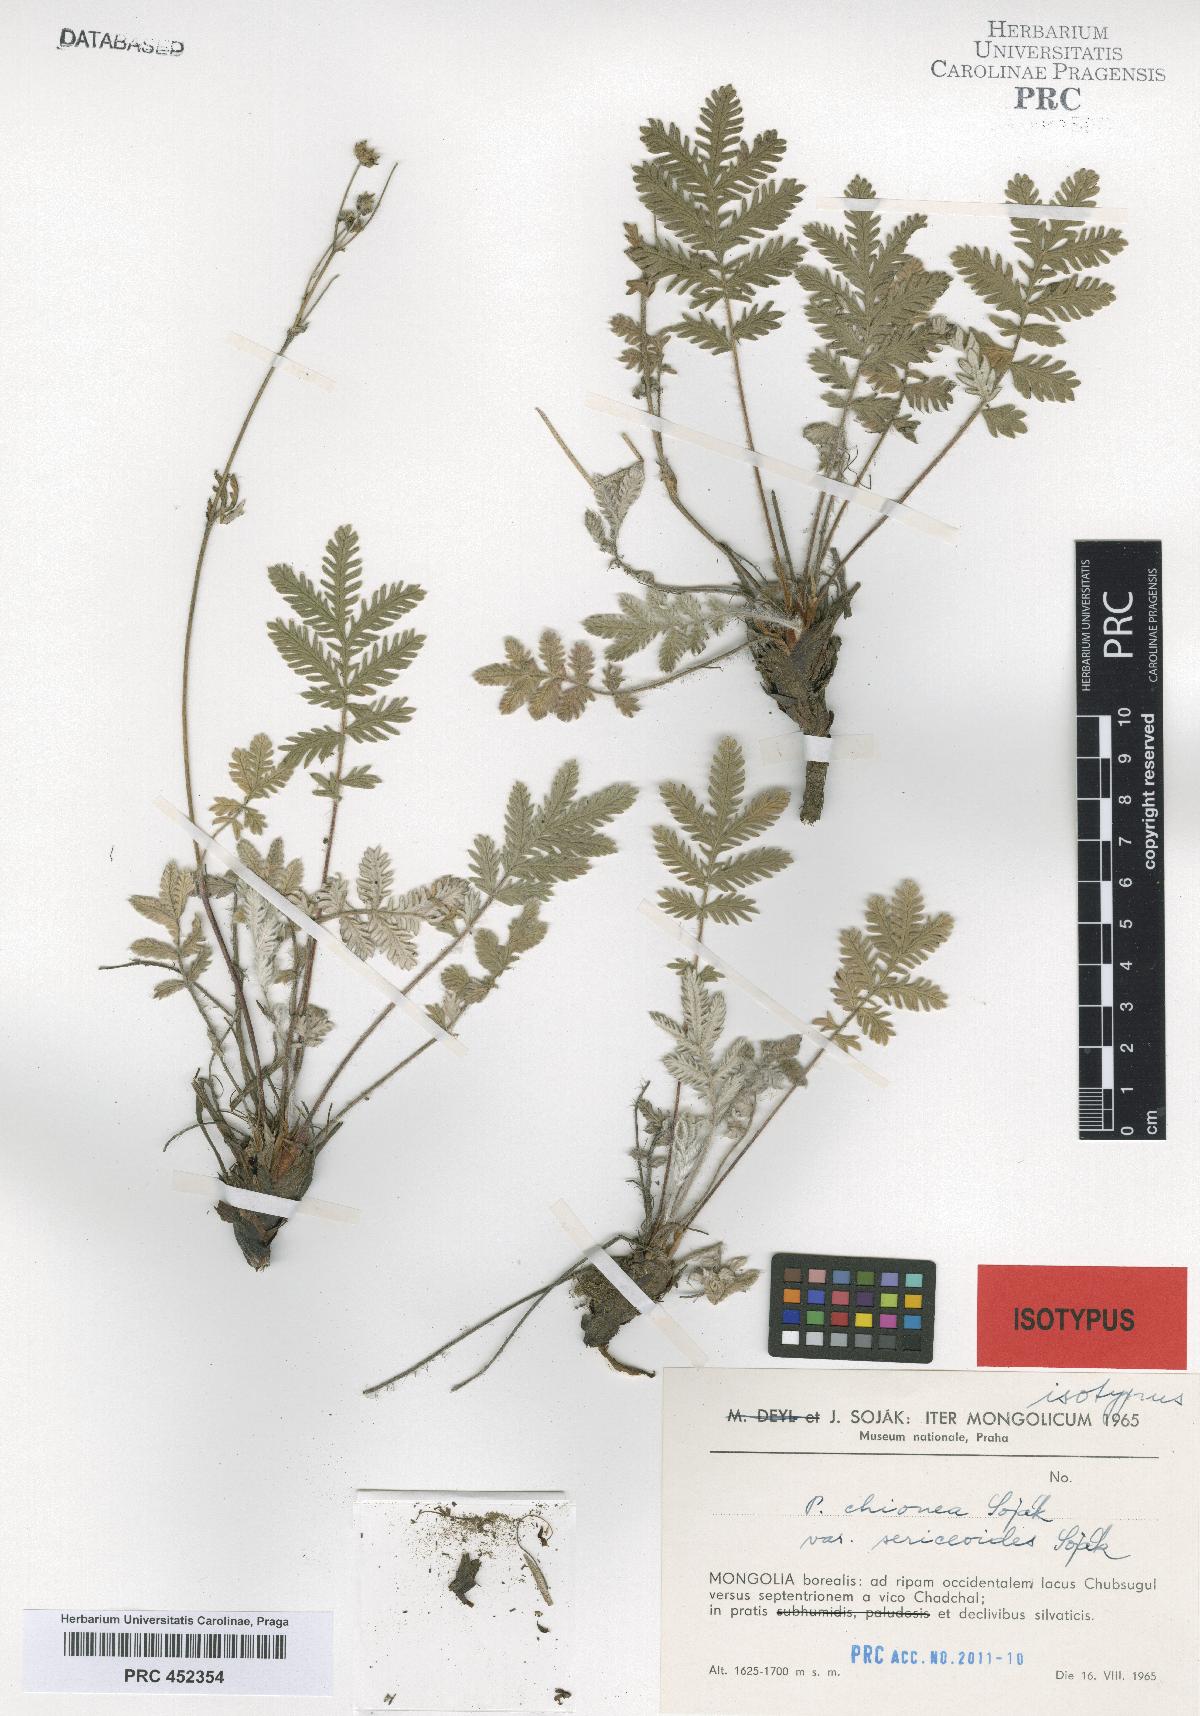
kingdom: Plantae
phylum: Tracheophyta
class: Magnoliopsida
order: Rosales
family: Rosaceae
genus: Potentilla
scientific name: Potentilla chionea
